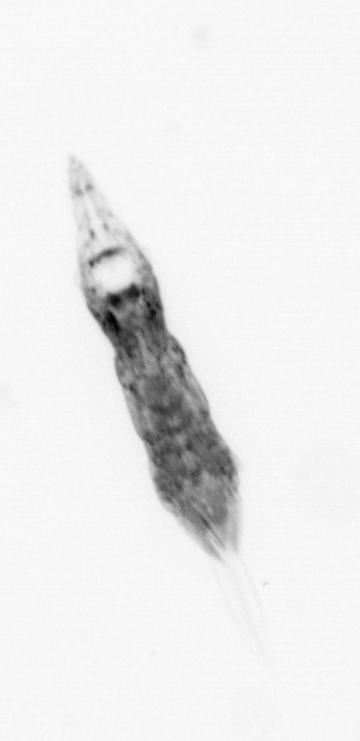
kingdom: Animalia
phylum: Arthropoda
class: Copepoda
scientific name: Copepoda
